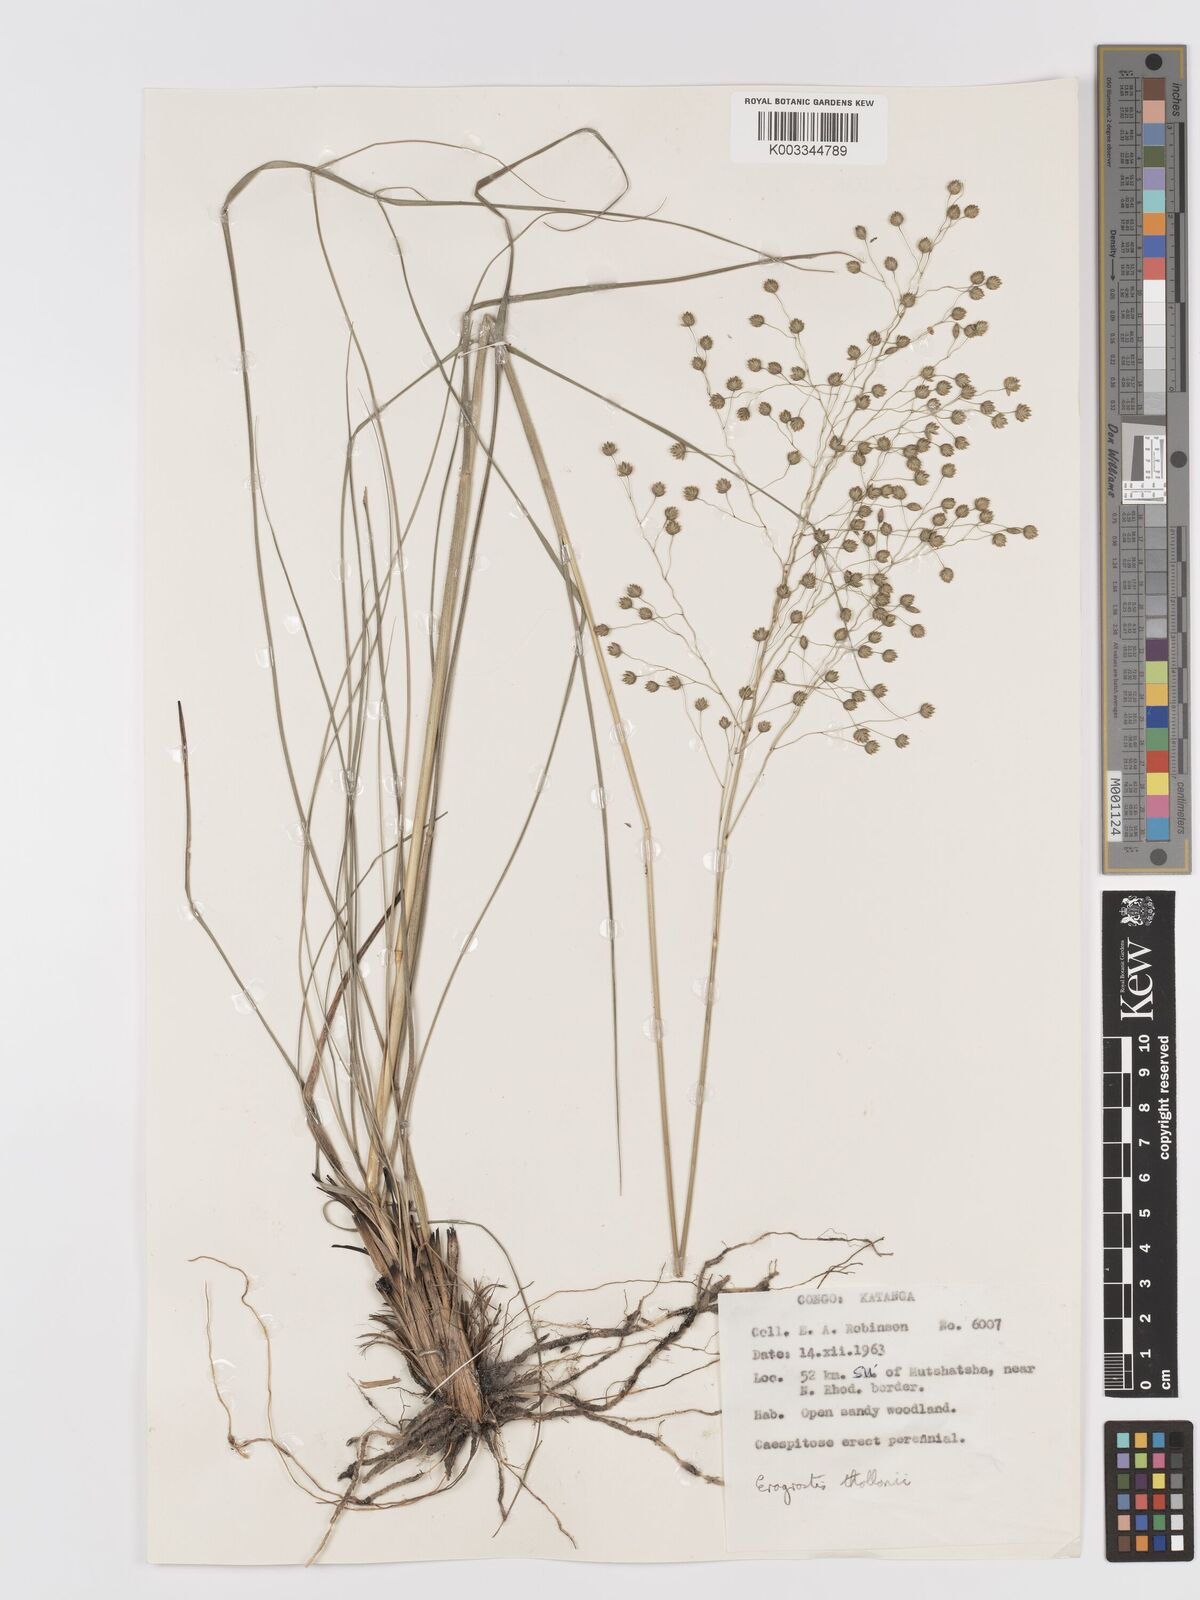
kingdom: Plantae
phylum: Tracheophyta
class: Liliopsida
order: Poales
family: Poaceae
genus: Eragrostis
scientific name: Eragrostis thollonii
